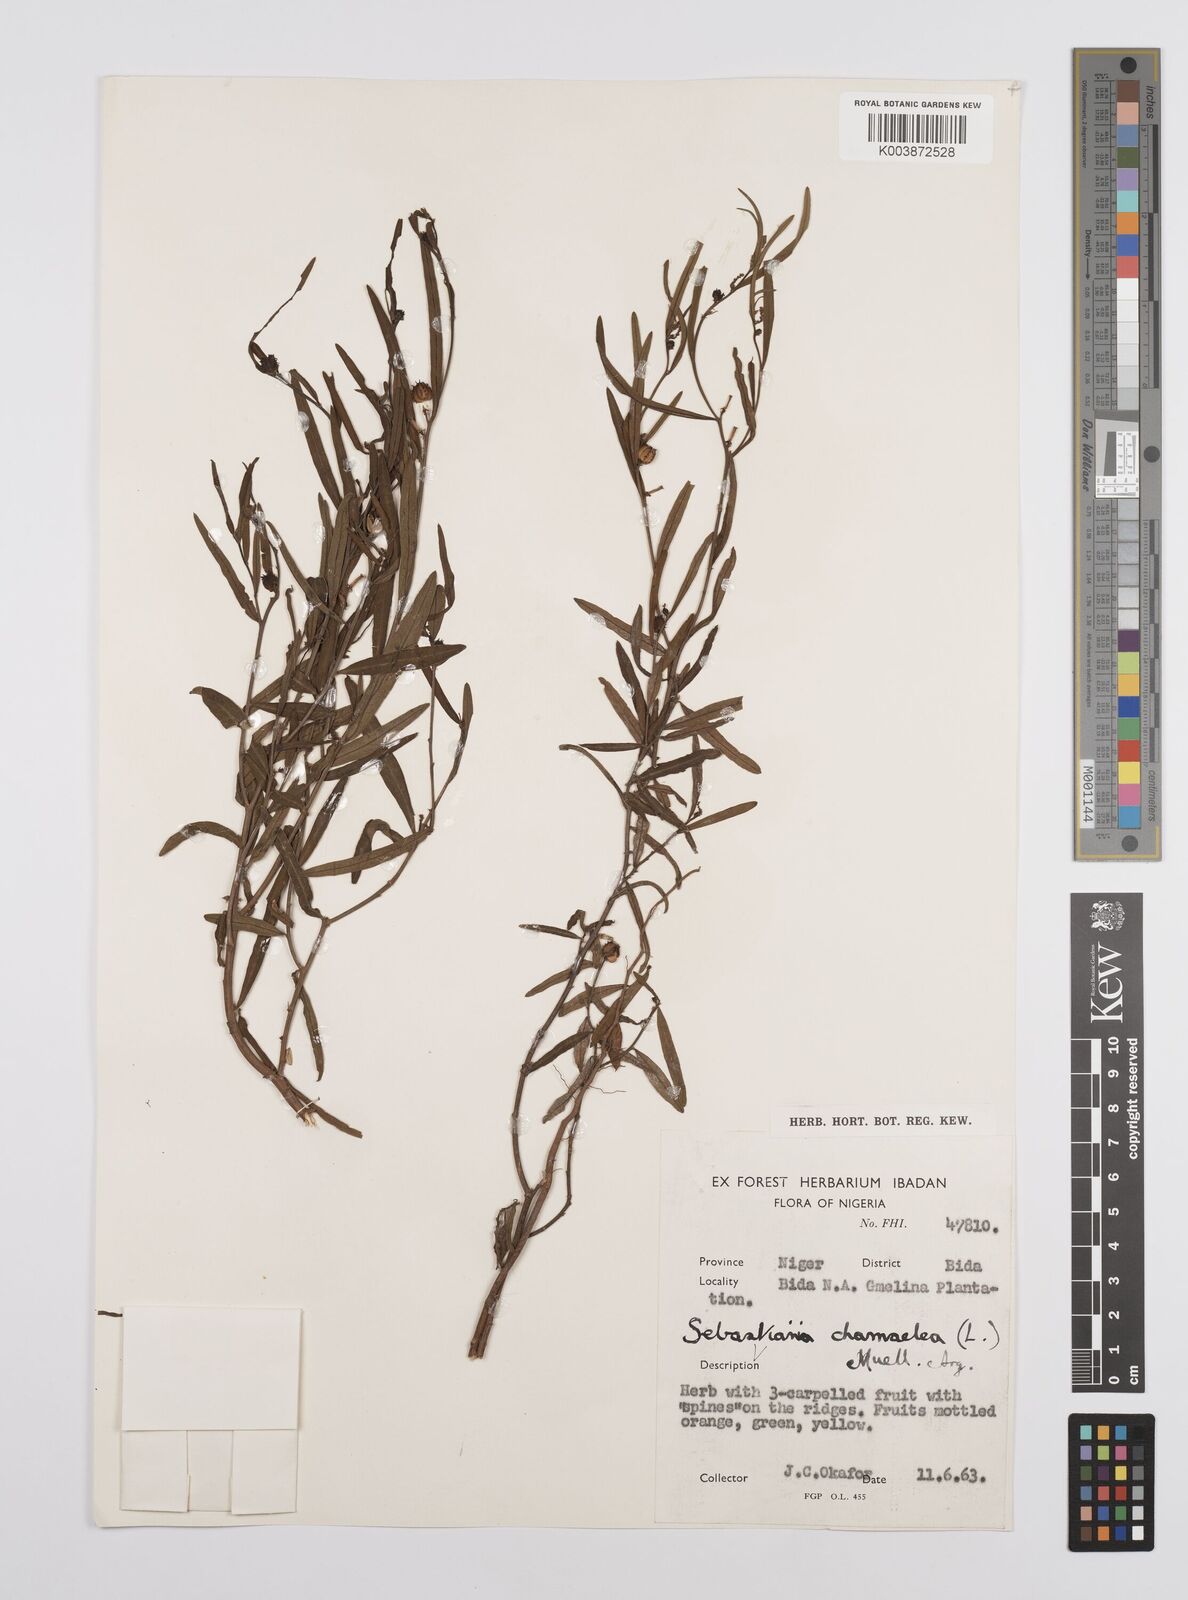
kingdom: Plantae
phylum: Tracheophyta
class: Magnoliopsida
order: Malpighiales
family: Euphorbiaceae
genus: Microstachys
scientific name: Microstachys chamaelea
